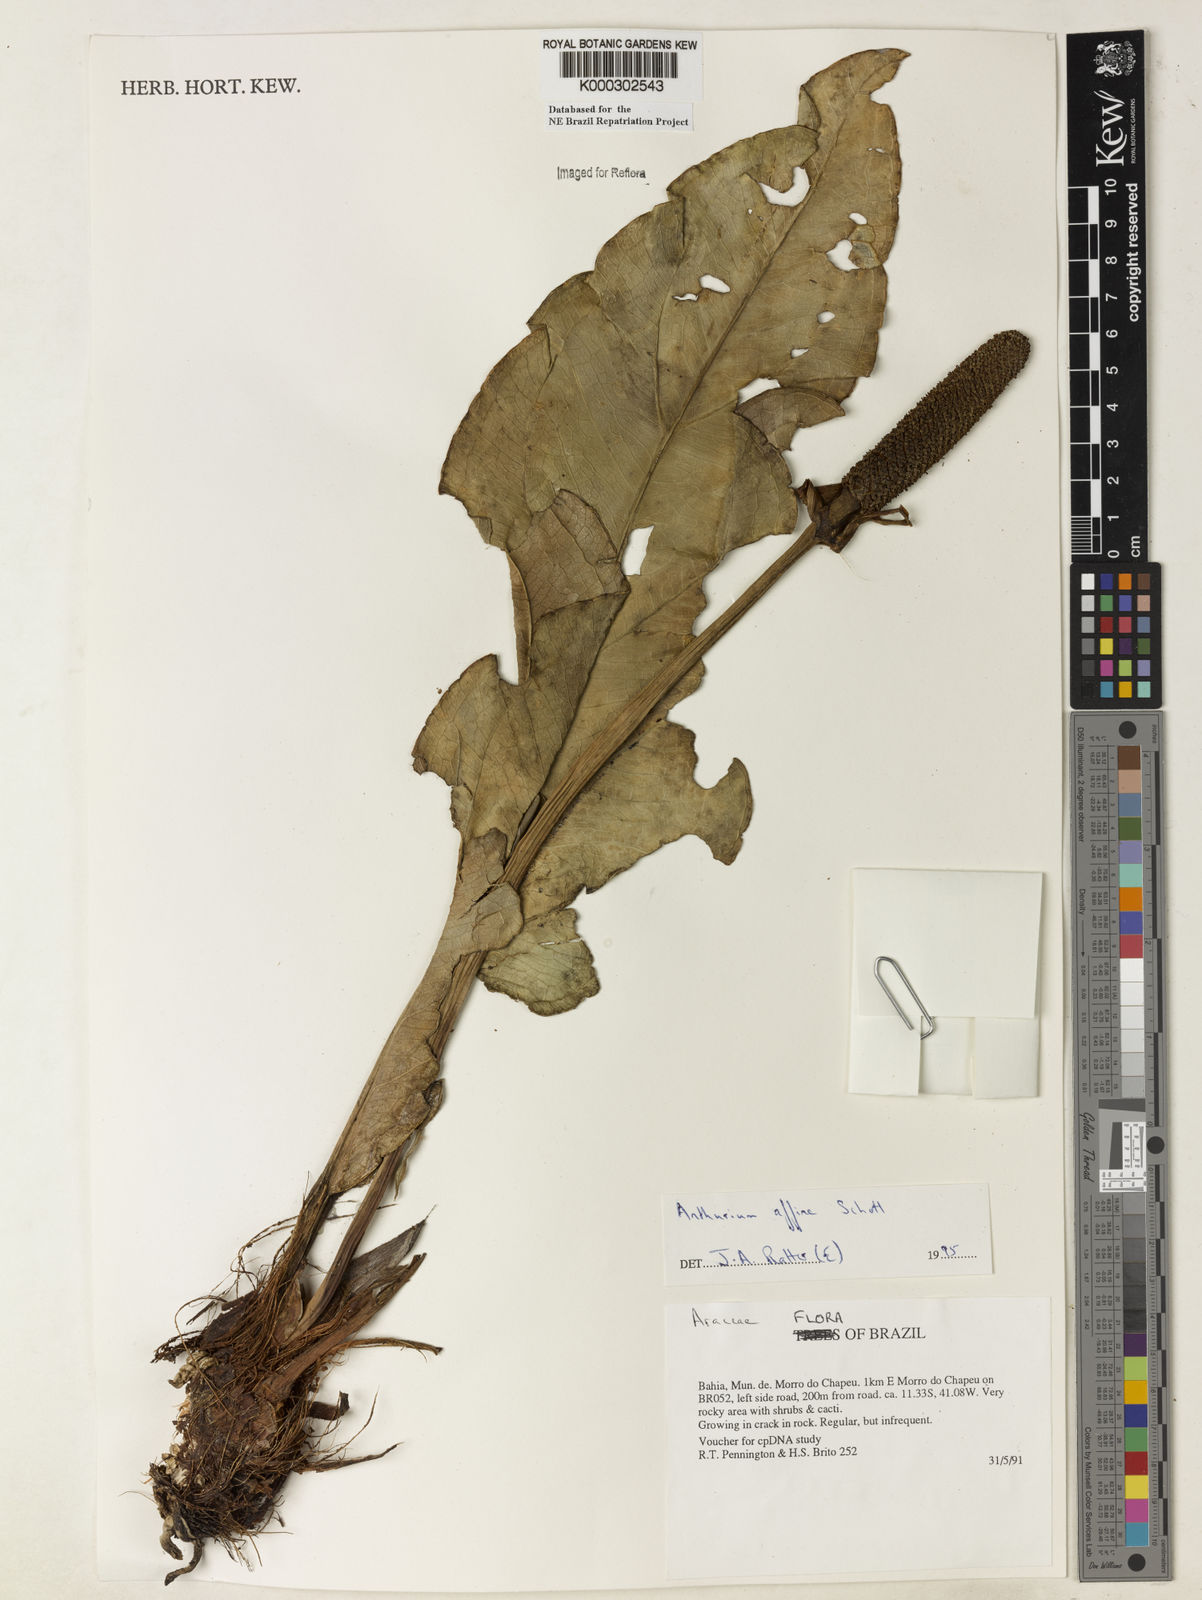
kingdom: Plantae
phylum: Tracheophyta
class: Liliopsida
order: Alismatales
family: Araceae
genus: Anthurium
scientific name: Anthurium affine
